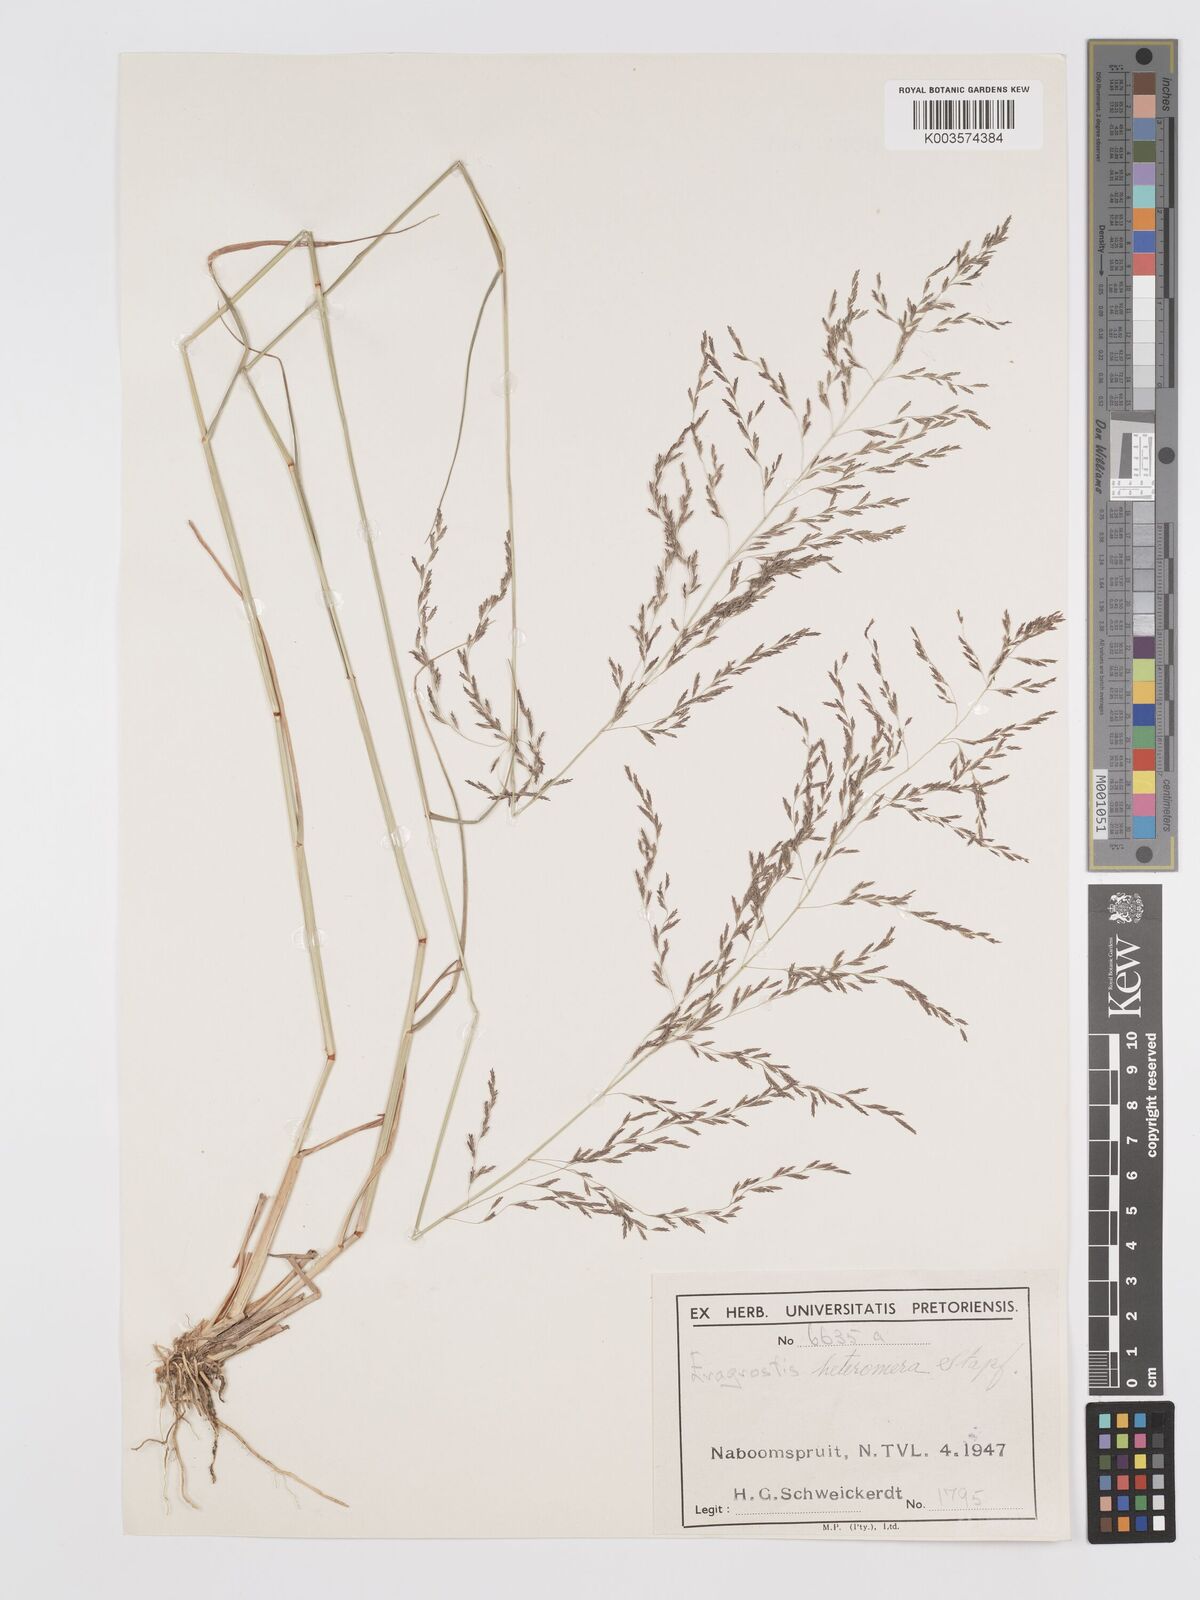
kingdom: Plantae
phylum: Tracheophyta
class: Liliopsida
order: Poales
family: Poaceae
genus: Eragrostis
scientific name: Eragrostis heteromera
